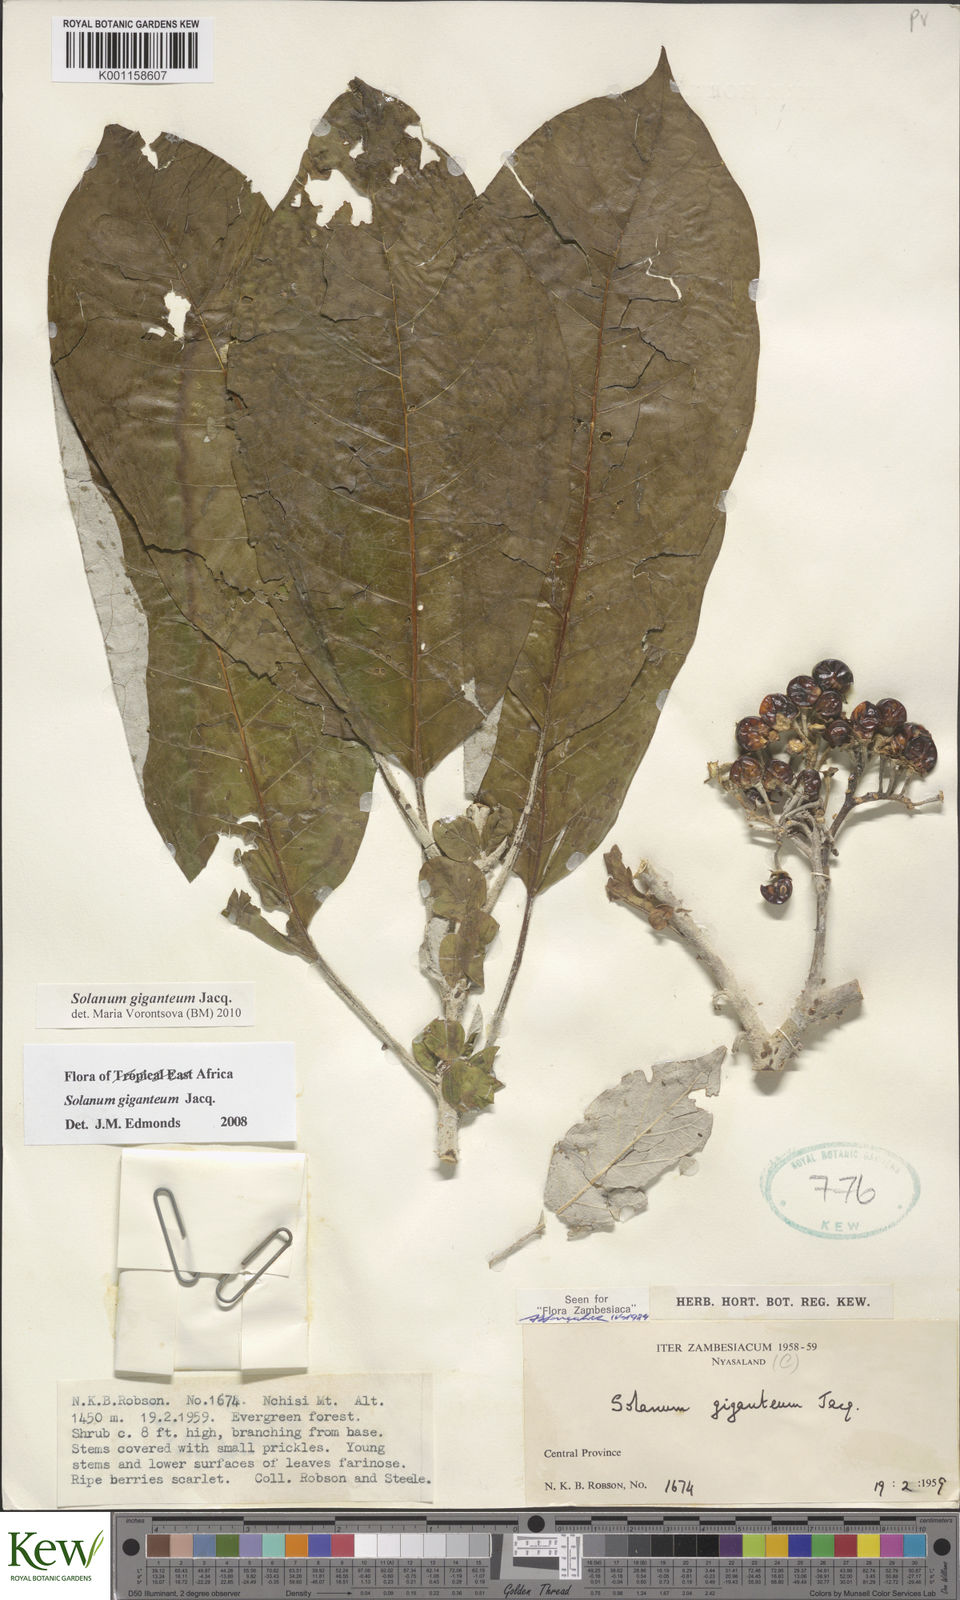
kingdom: Plantae
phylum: Tracheophyta
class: Magnoliopsida
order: Solanales
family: Solanaceae
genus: Solanum
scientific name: Solanum giganteum
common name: Healing-leaf-tree
